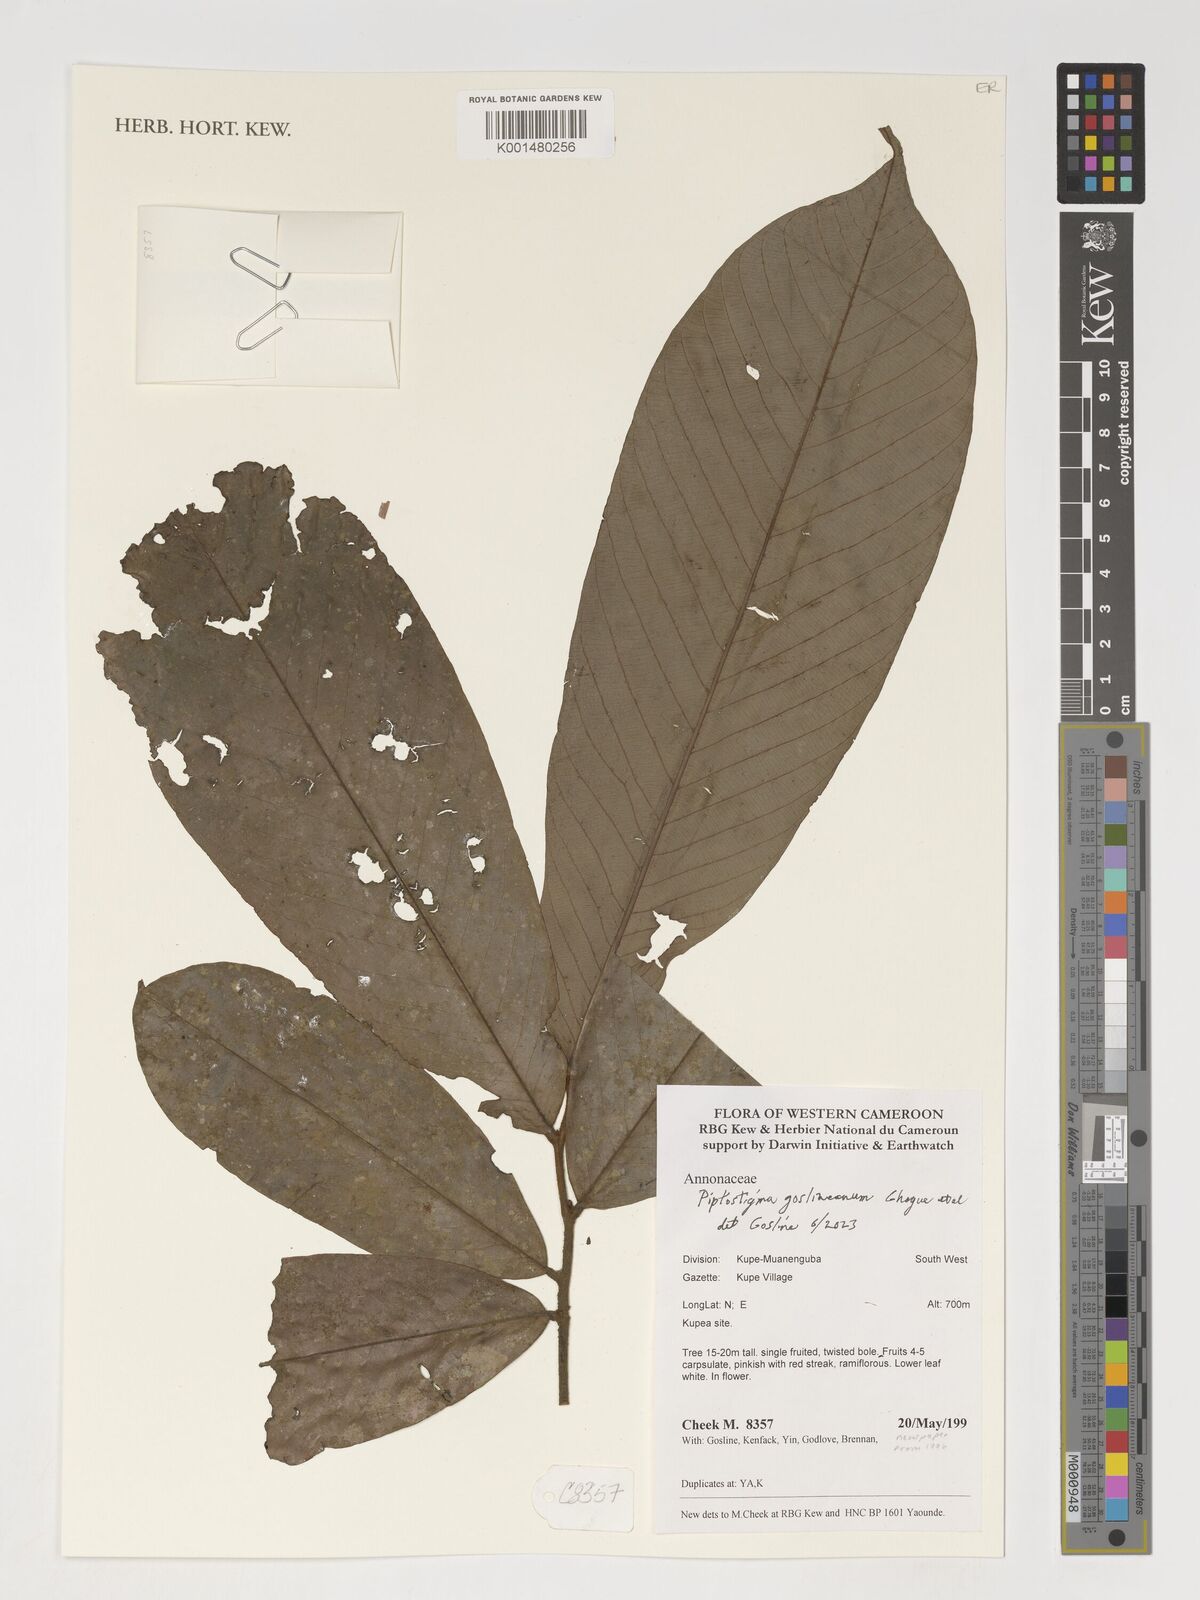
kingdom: Plantae
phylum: Tracheophyta
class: Magnoliopsida
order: Magnoliales
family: Annonaceae
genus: Piptostigma
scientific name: Piptostigma goslineanum
